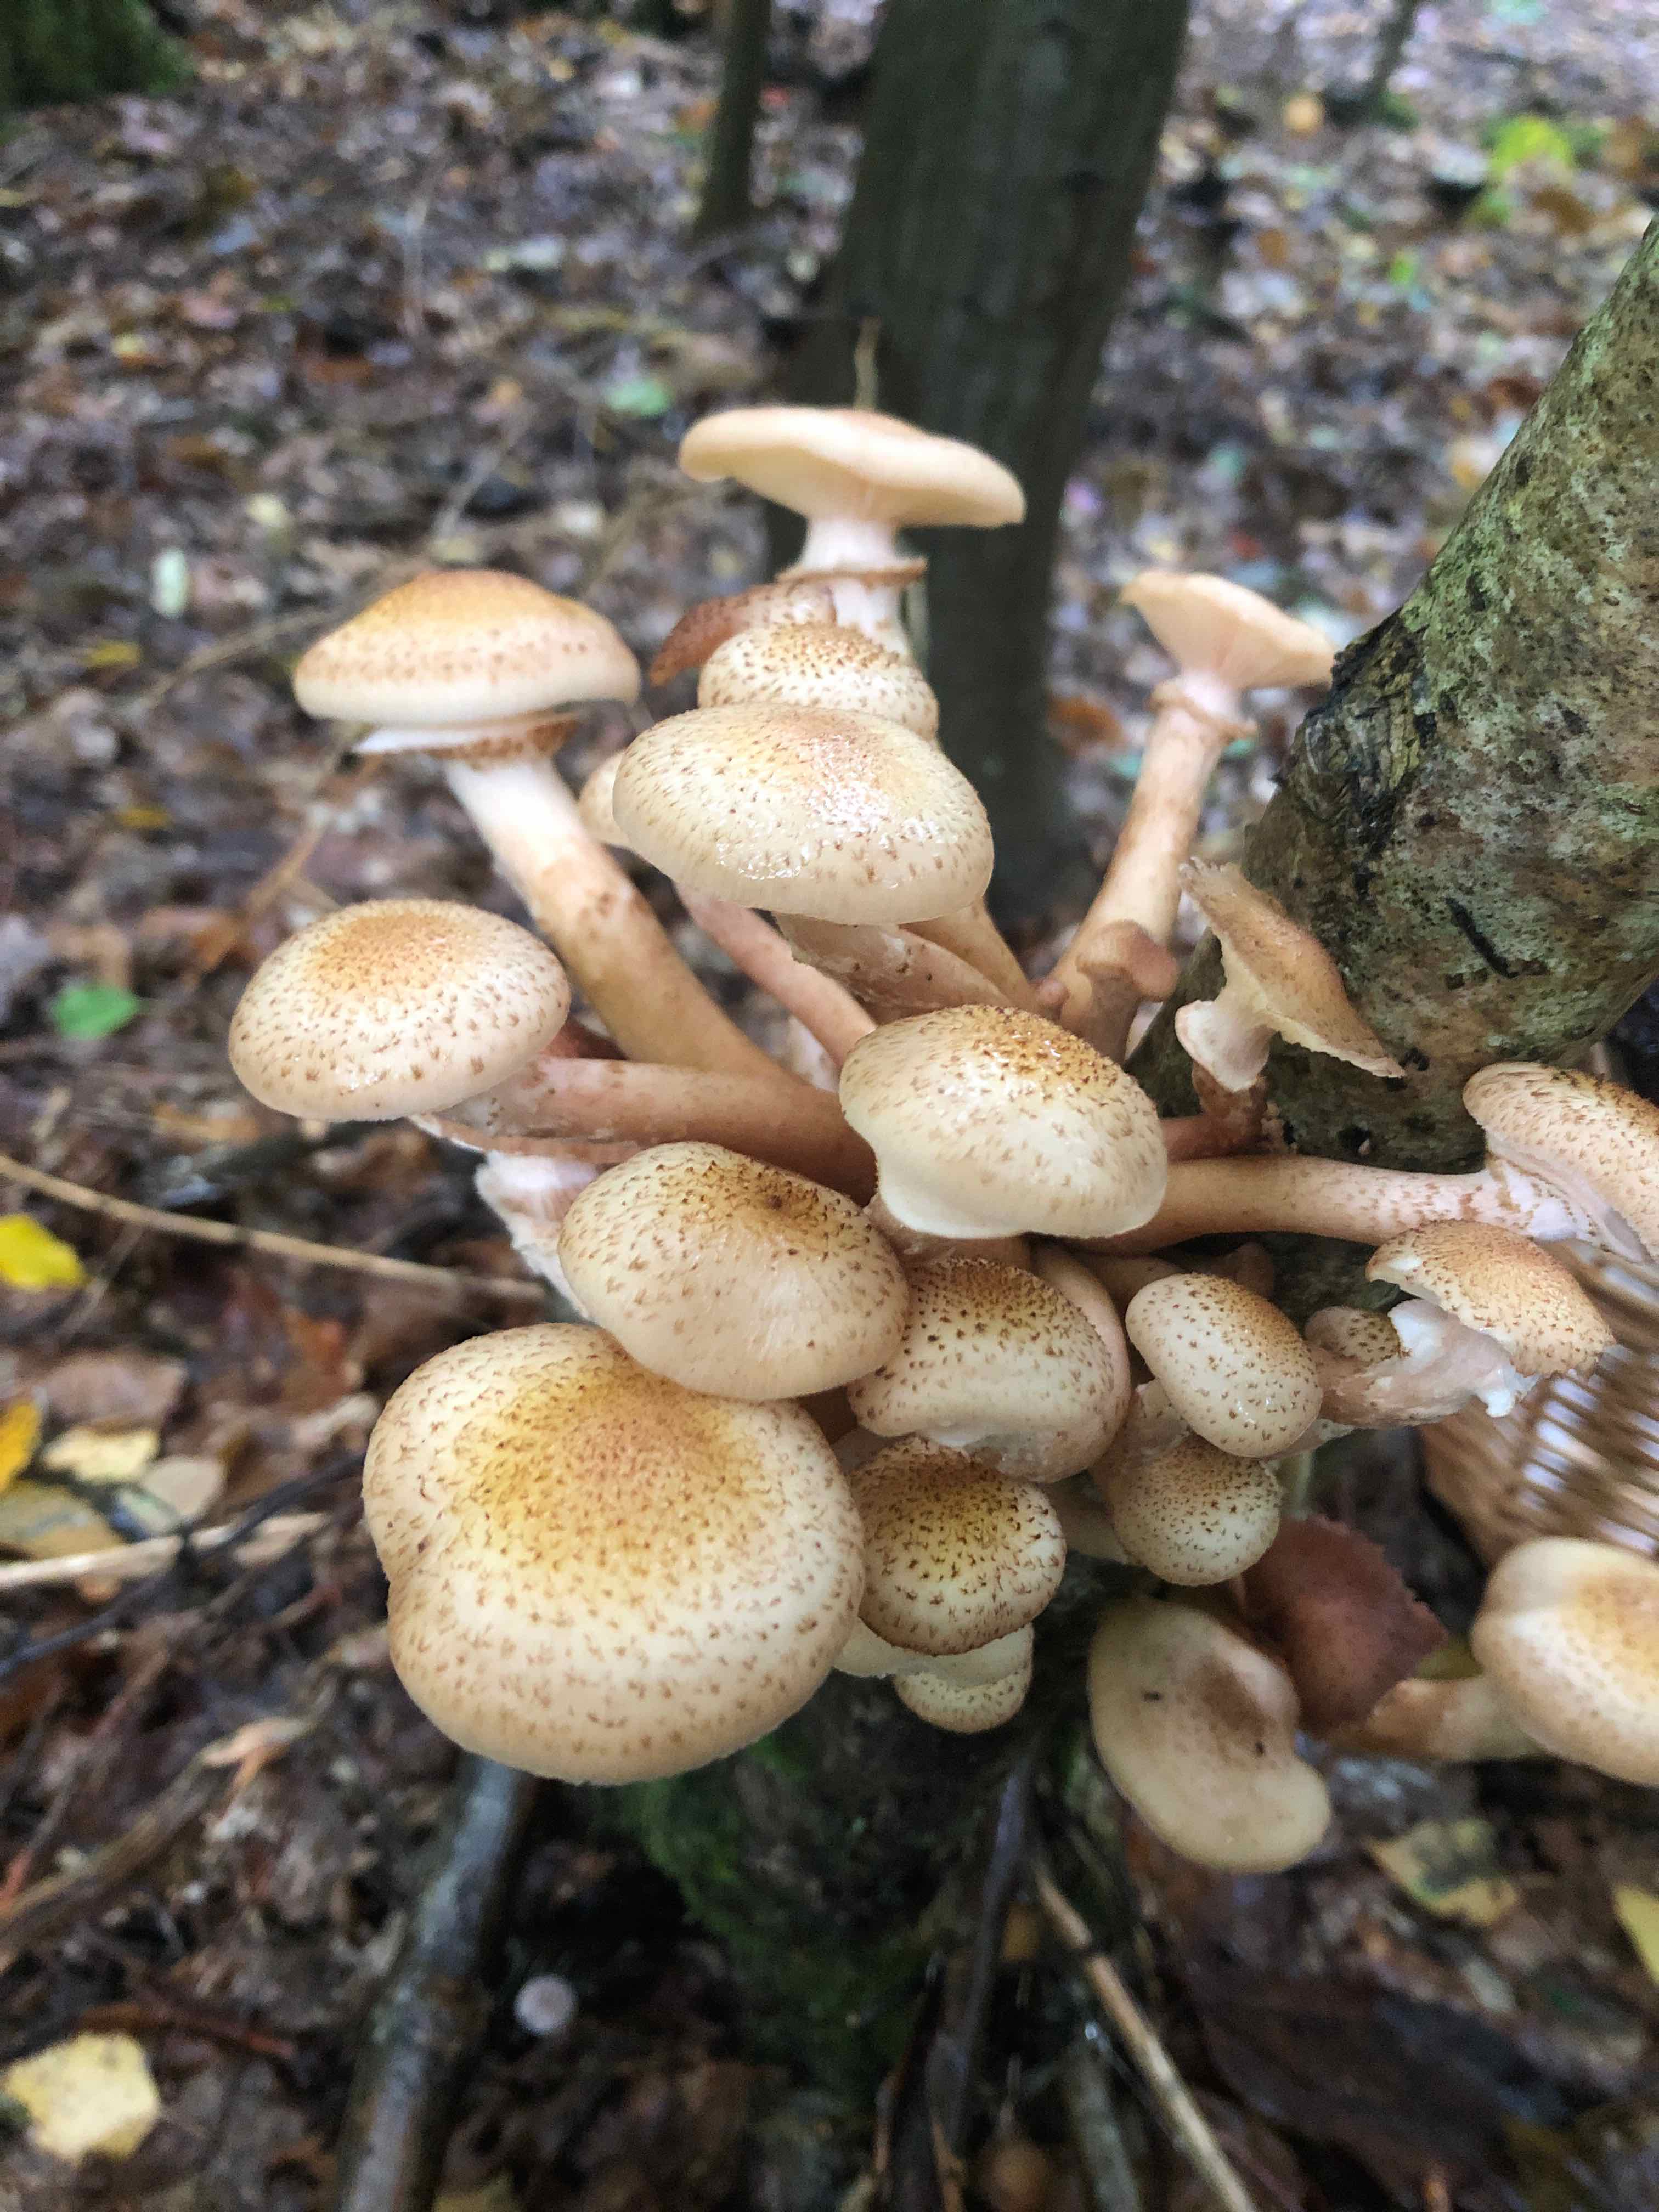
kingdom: Fungi
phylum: Basidiomycota
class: Agaricomycetes
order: Agaricales
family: Physalacriaceae
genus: Armillaria
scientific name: Armillaria ostoyae
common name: mørk honningsvamp
